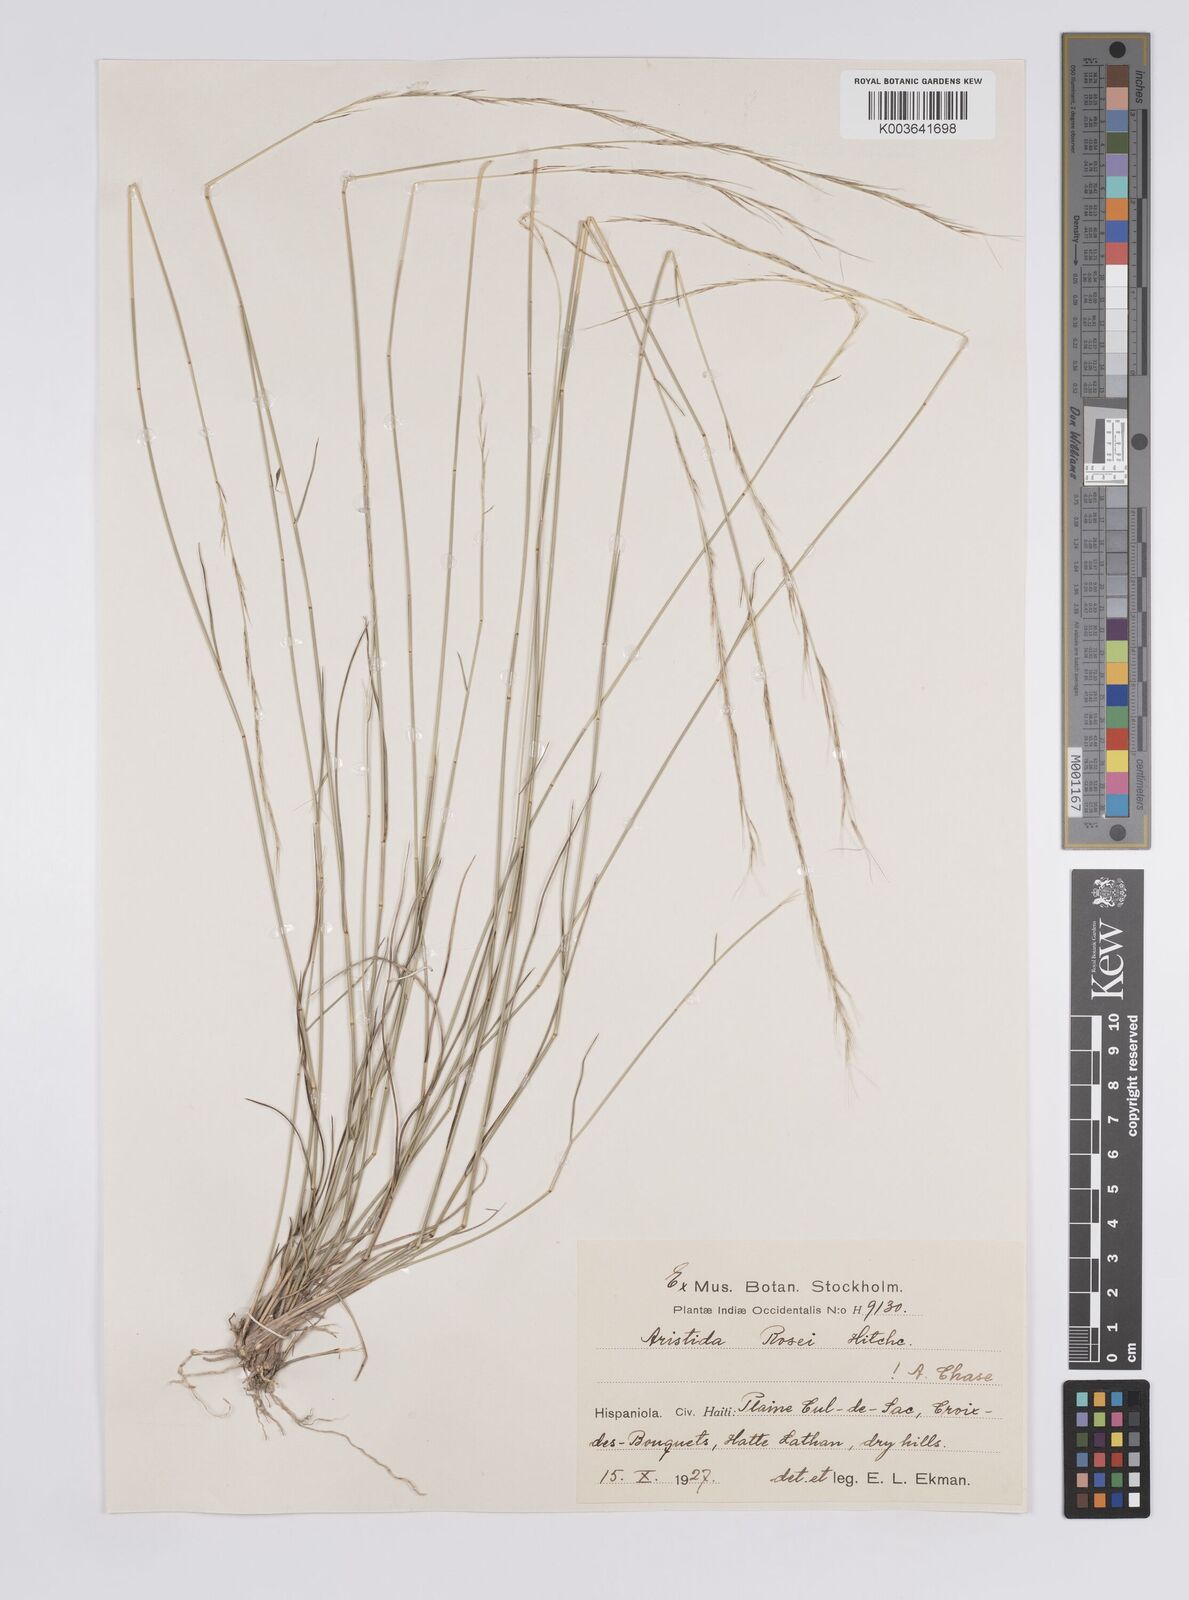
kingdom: Plantae
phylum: Tracheophyta
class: Liliopsida
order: Poales
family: Poaceae
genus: Aristida
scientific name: Aristida rosei
